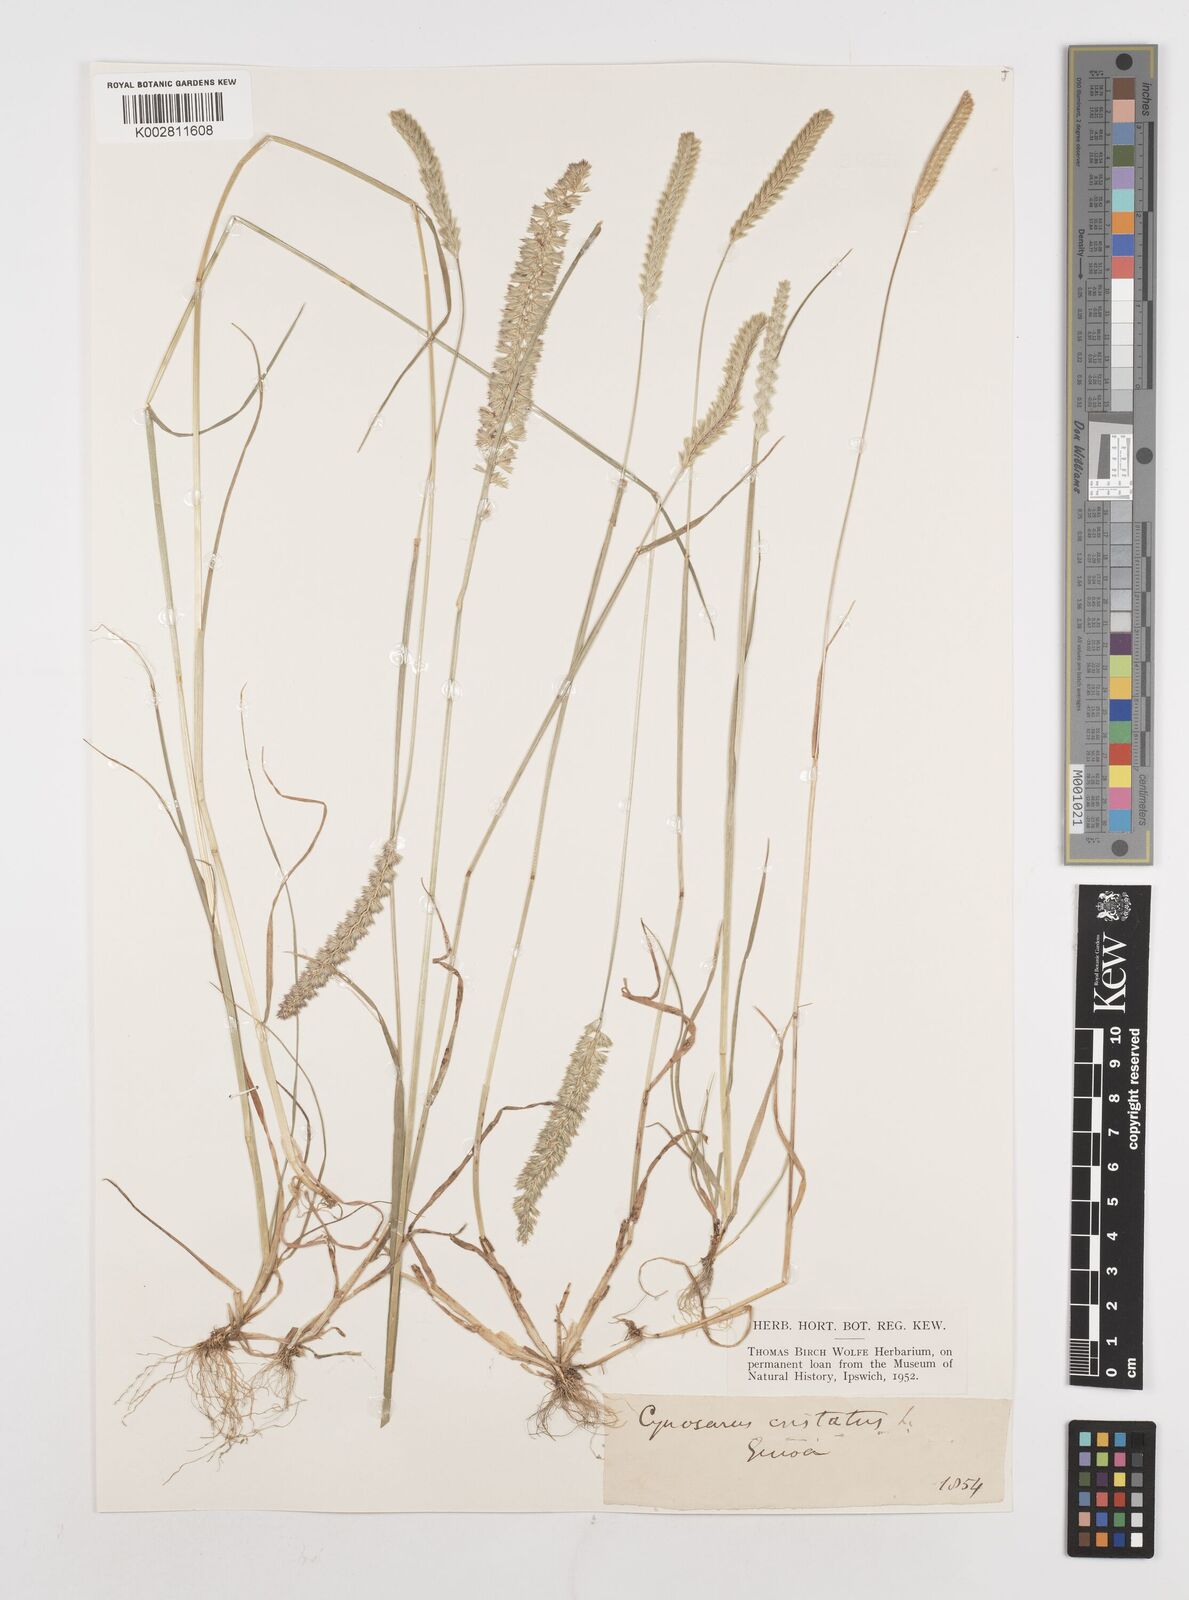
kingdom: Plantae
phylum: Tracheophyta
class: Liliopsida
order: Poales
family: Poaceae
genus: Cynosurus
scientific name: Cynosurus cristatus
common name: Crested dog's-tail
